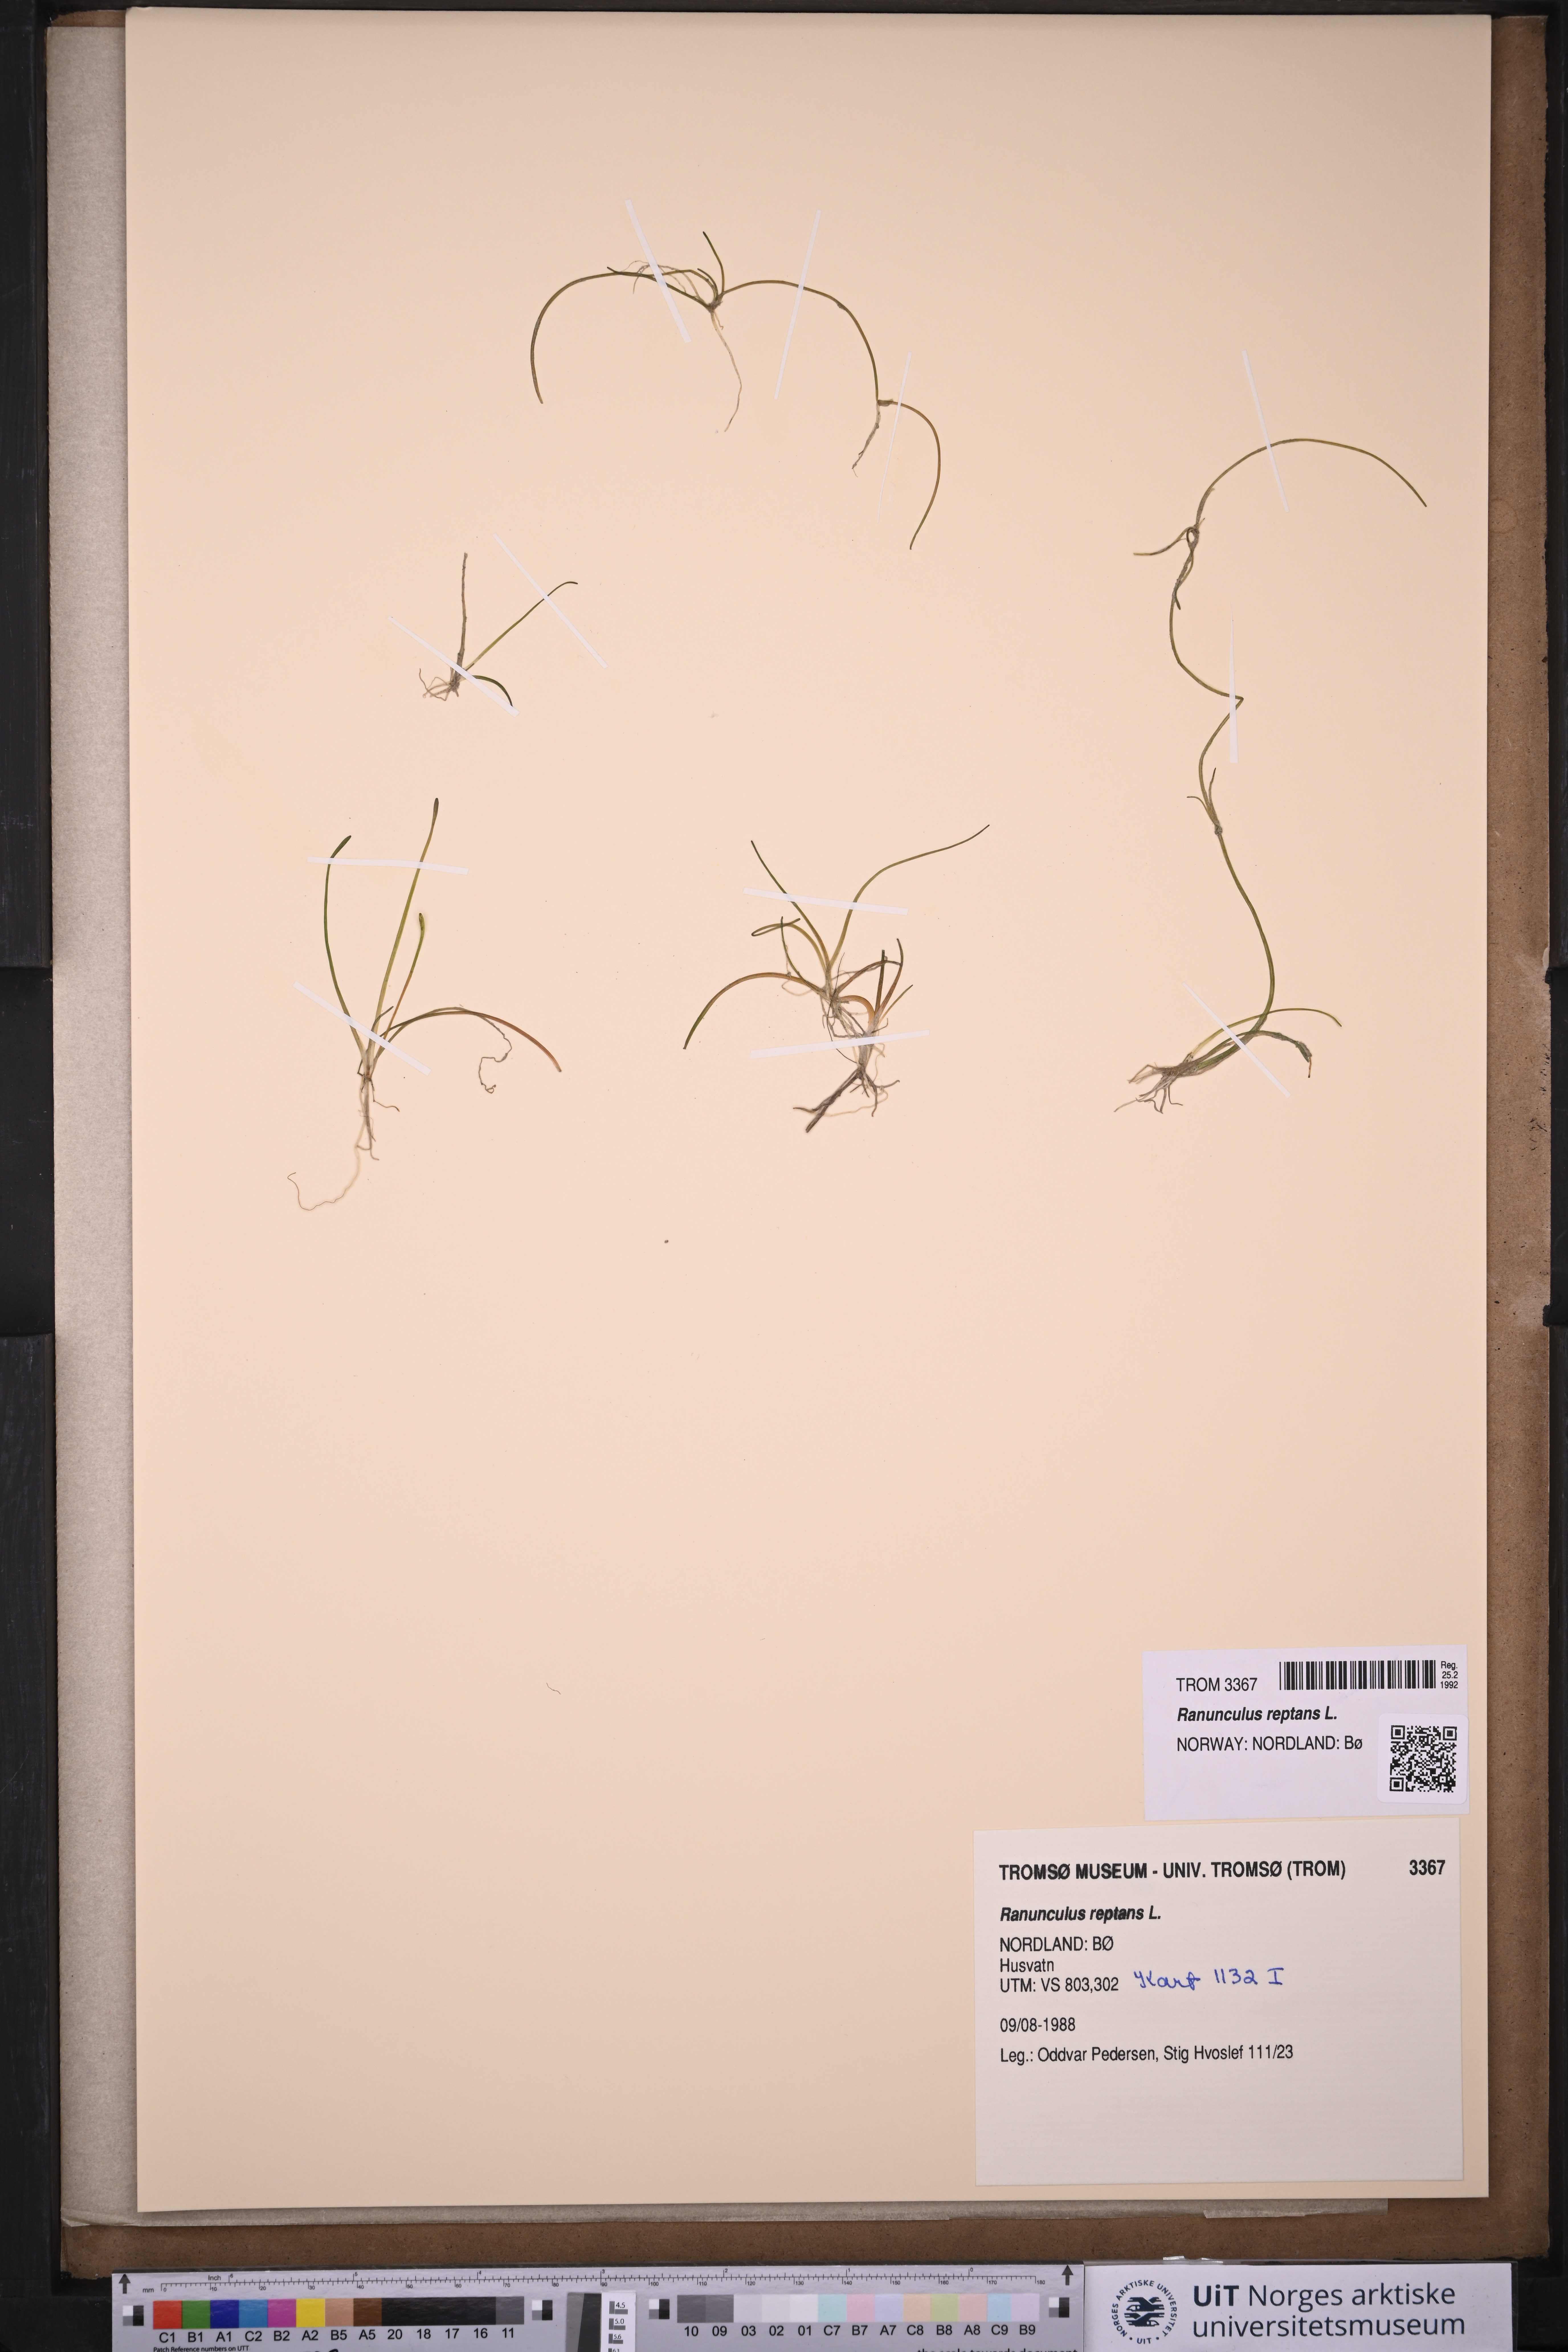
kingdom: Plantae
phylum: Tracheophyta
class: Magnoliopsida
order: Ranunculales
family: Ranunculaceae
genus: Ranunculus
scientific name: Ranunculus reptans
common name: Creeping spearwort
